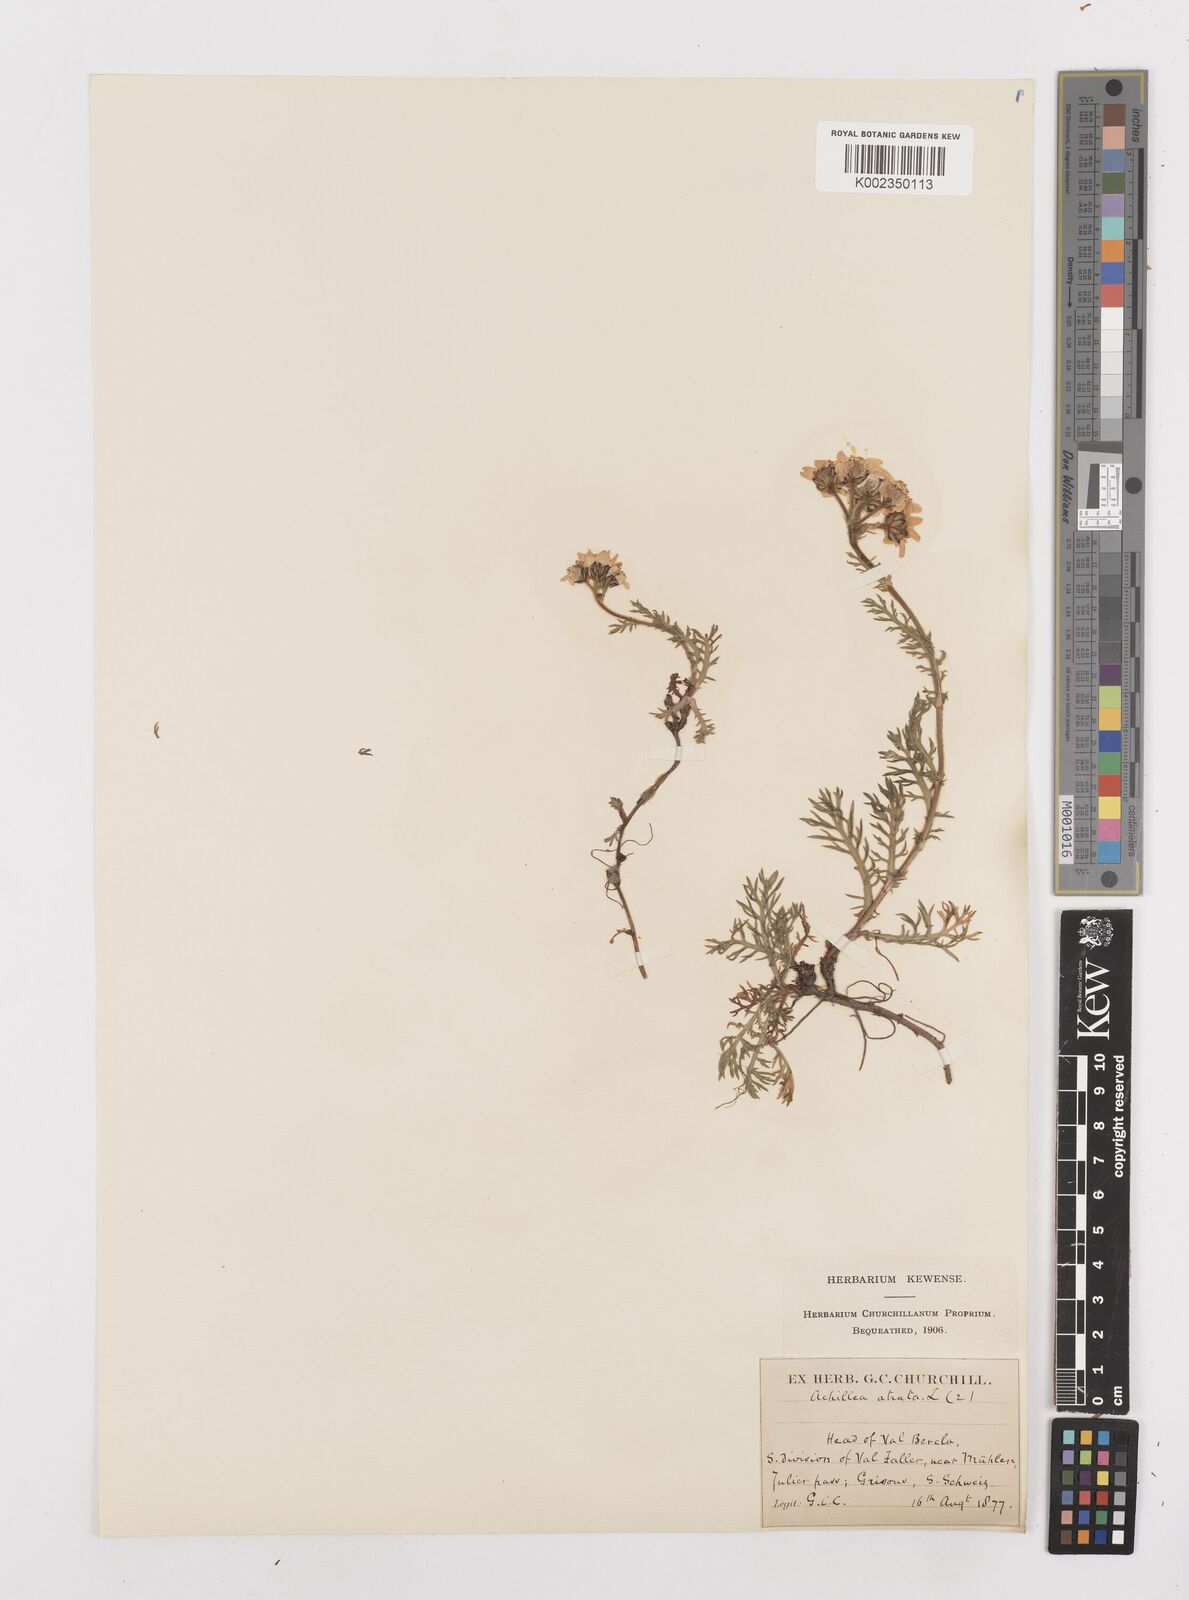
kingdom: Plantae
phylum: Tracheophyta
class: Magnoliopsida
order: Asterales
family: Asteraceae
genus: Achillea
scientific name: Achillea atrata
